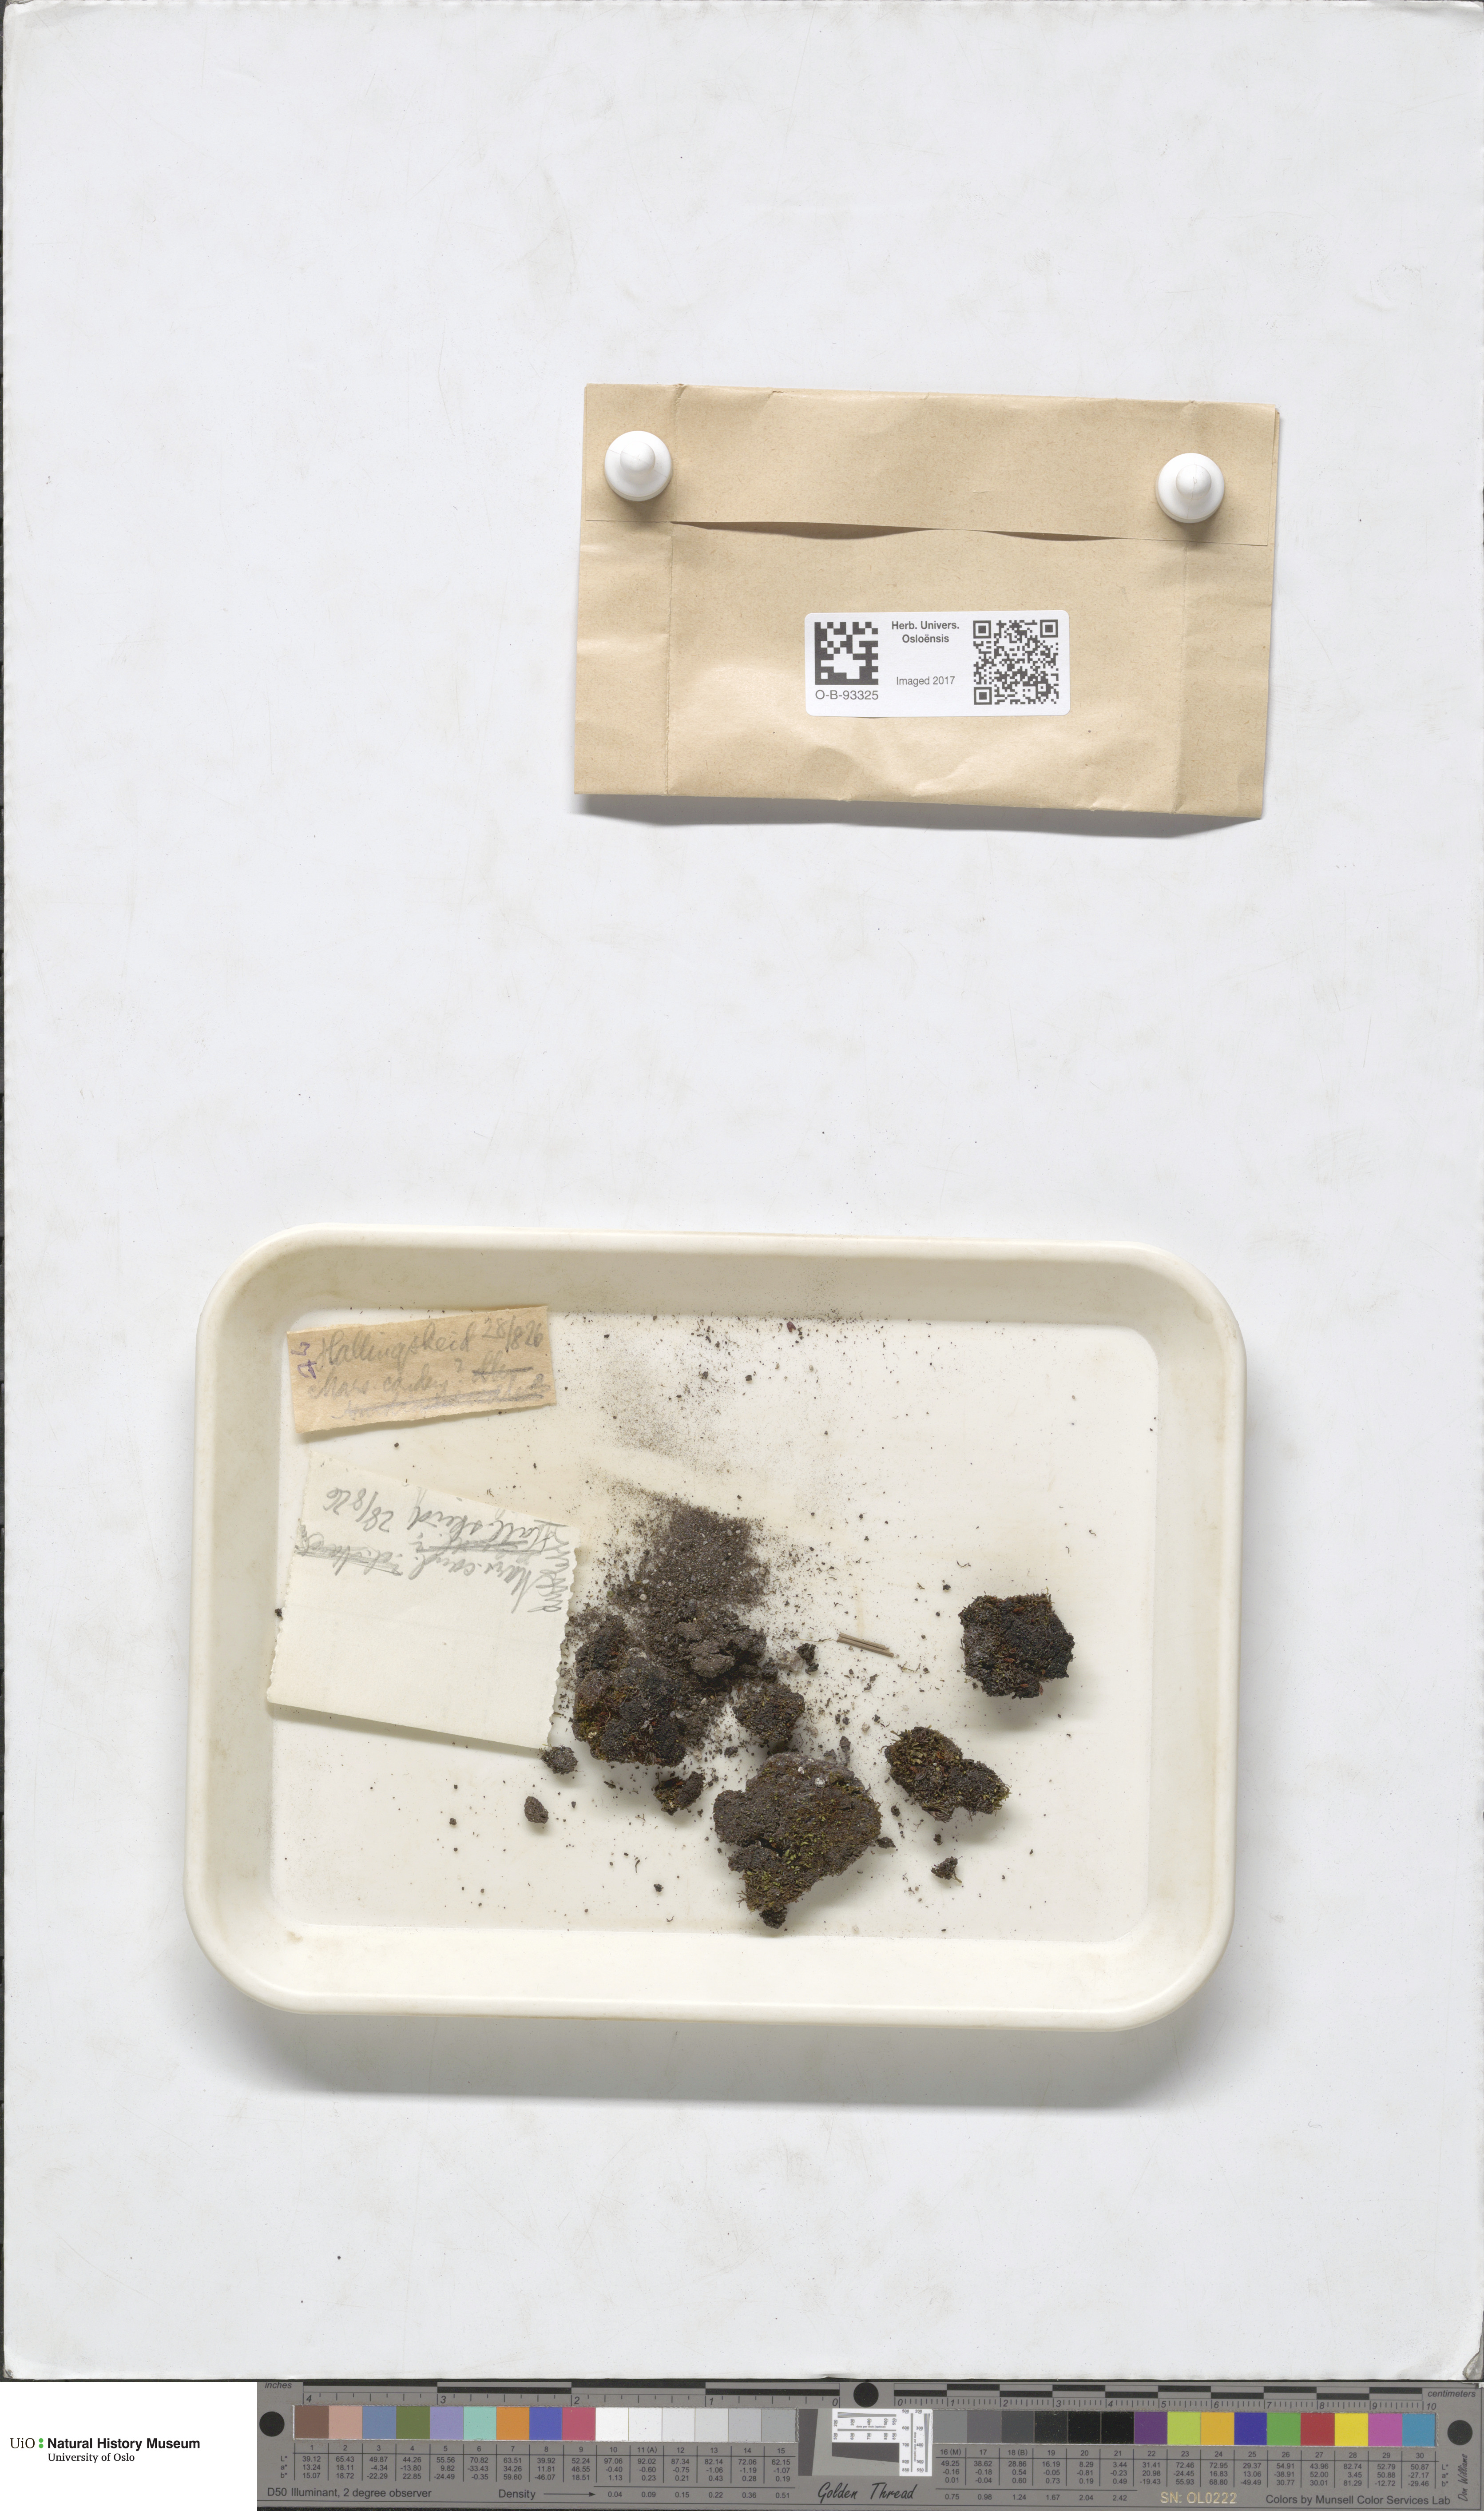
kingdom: Plantae
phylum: Marchantiophyta
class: Jungermanniopsida
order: Jungermanniales
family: Gymnomitriaceae
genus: Gymnomitrion
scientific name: Gymnomitrion brevissimum
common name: Snow rustwort
